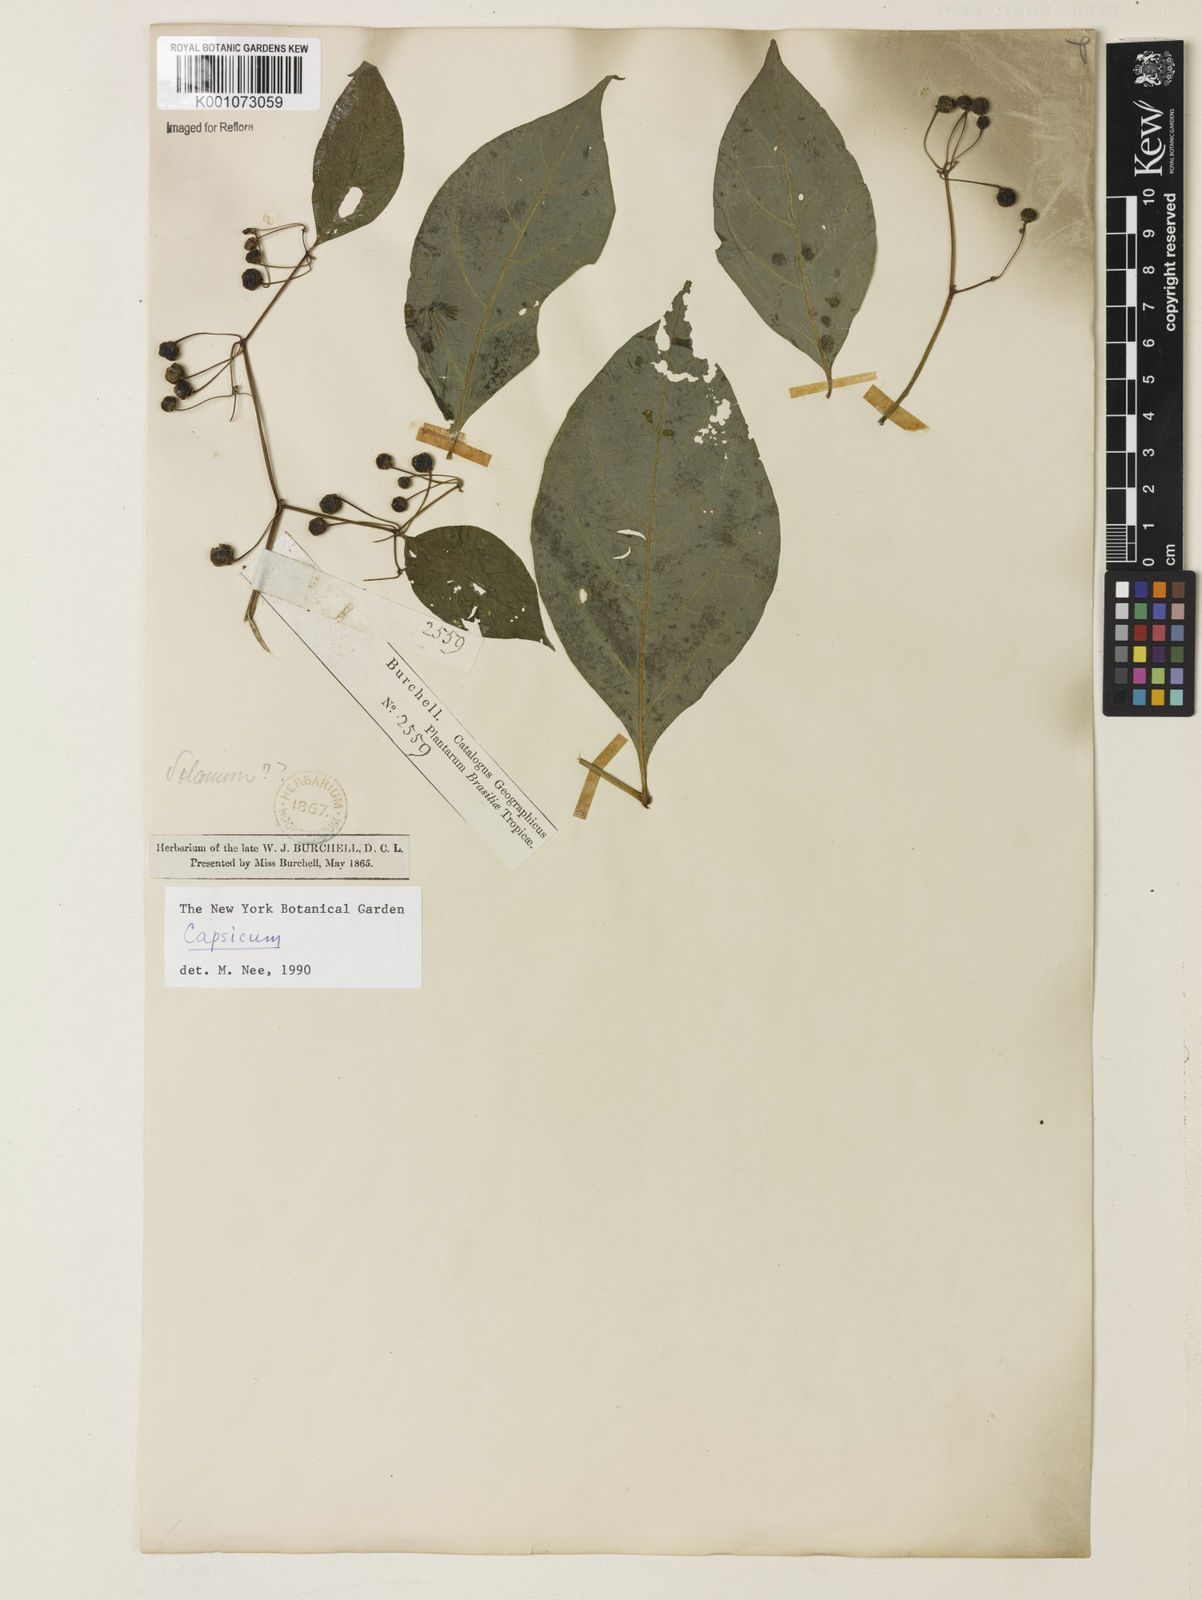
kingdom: Plantae
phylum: Tracheophyta
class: Magnoliopsida
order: Solanales
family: Solanaceae
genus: Witheringia
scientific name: Witheringia
